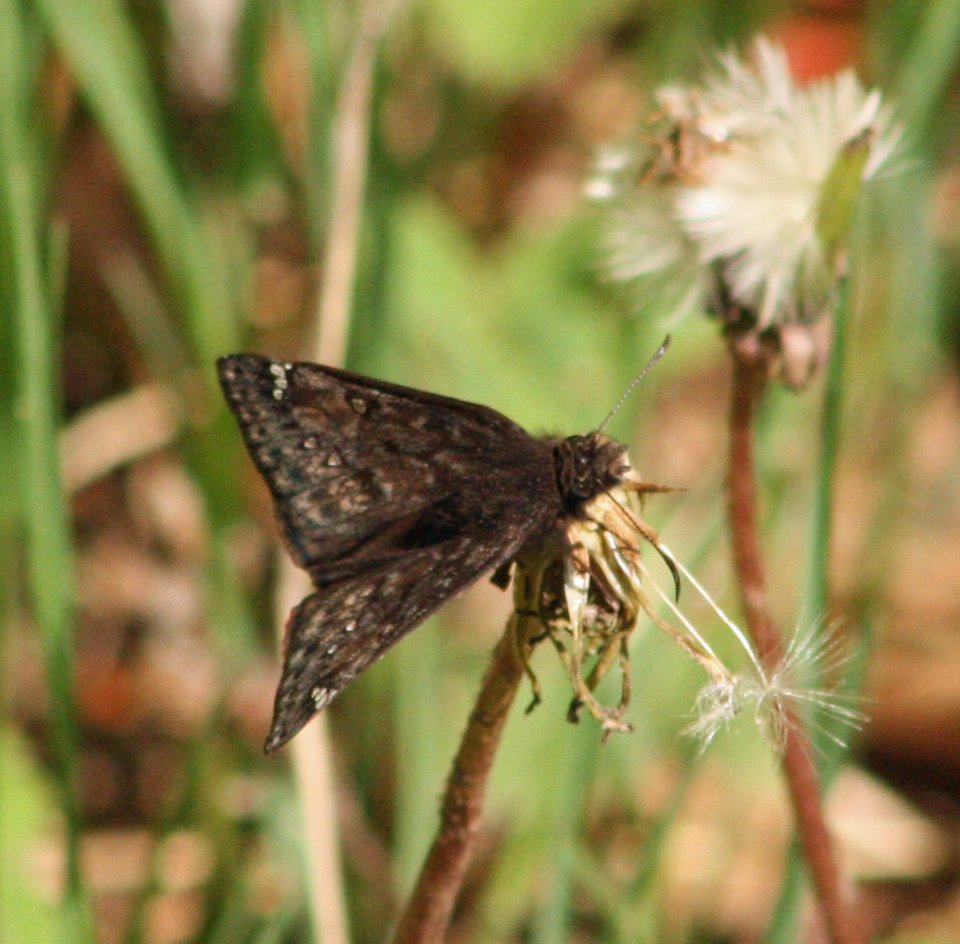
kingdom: Animalia
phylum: Arthropoda
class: Insecta
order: Lepidoptera
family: Hesperiidae
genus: Gesta
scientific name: Gesta
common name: Juvenal's Duskywing
